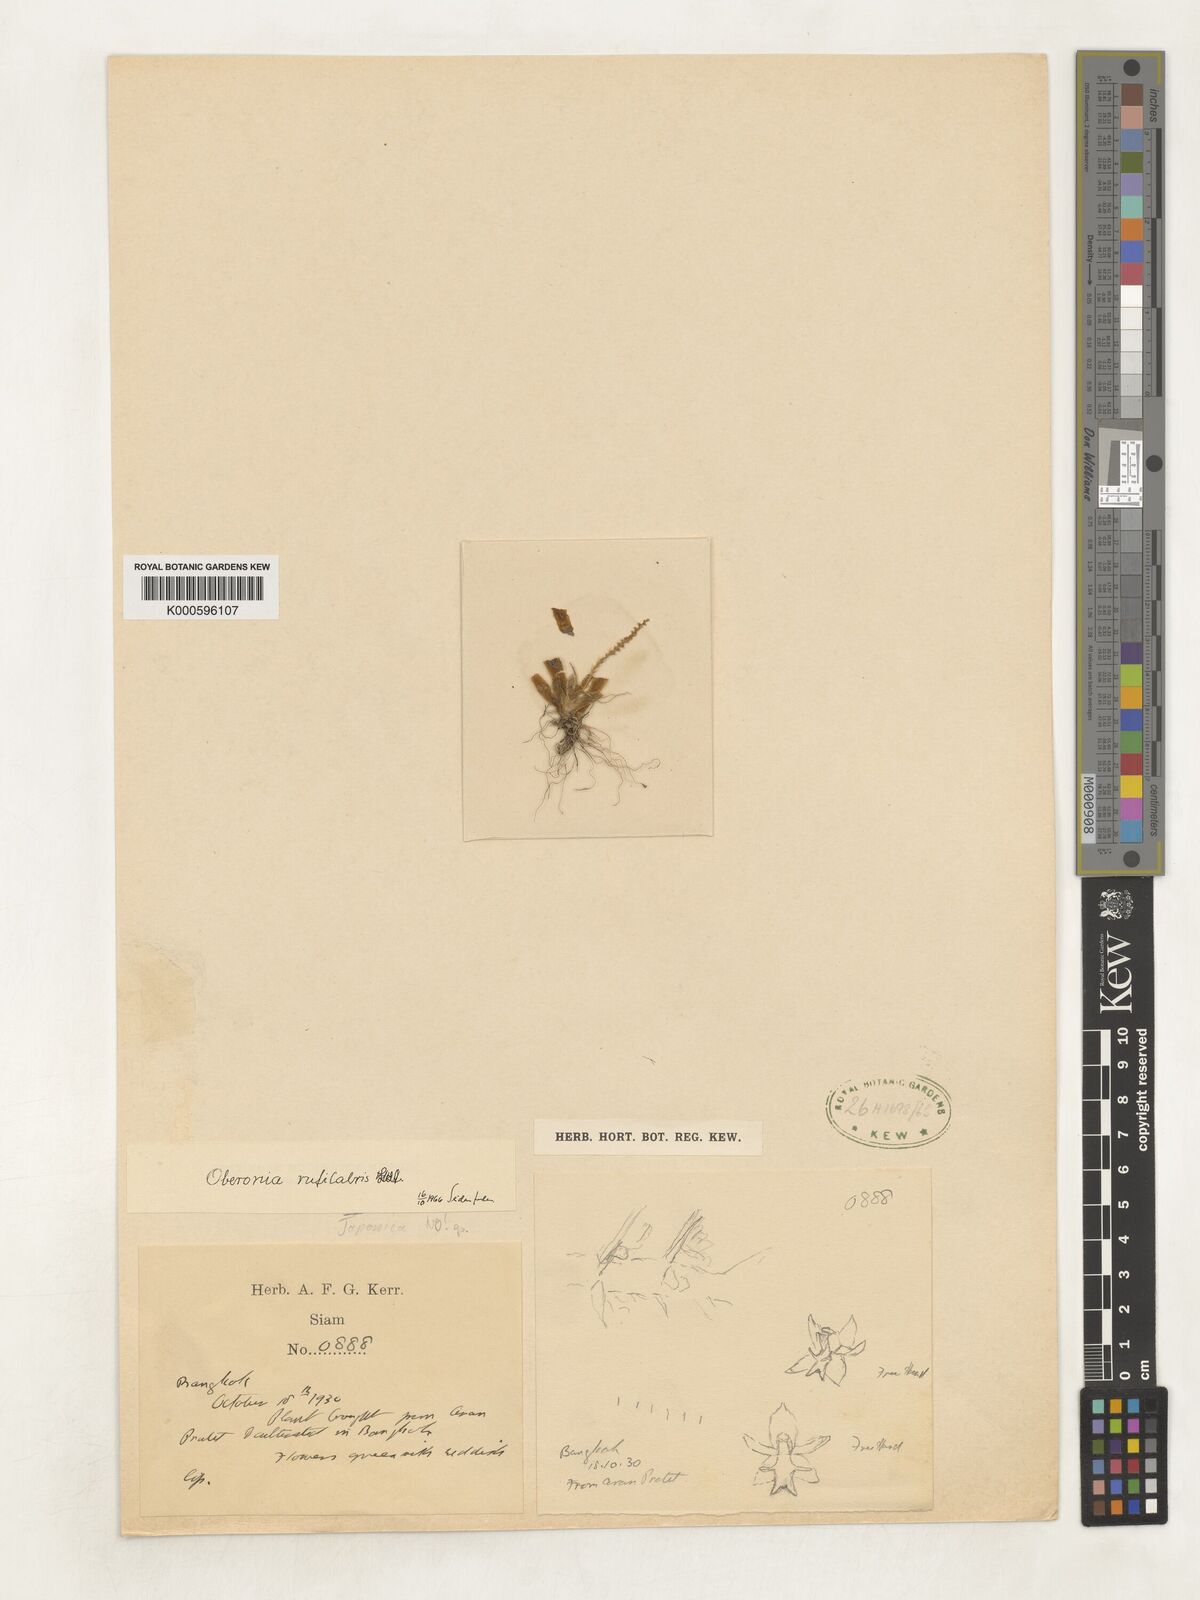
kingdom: Plantae
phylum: Tracheophyta
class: Liliopsida
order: Asparagales
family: Orchidaceae
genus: Oberonia
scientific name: Oberonia rufilabris
